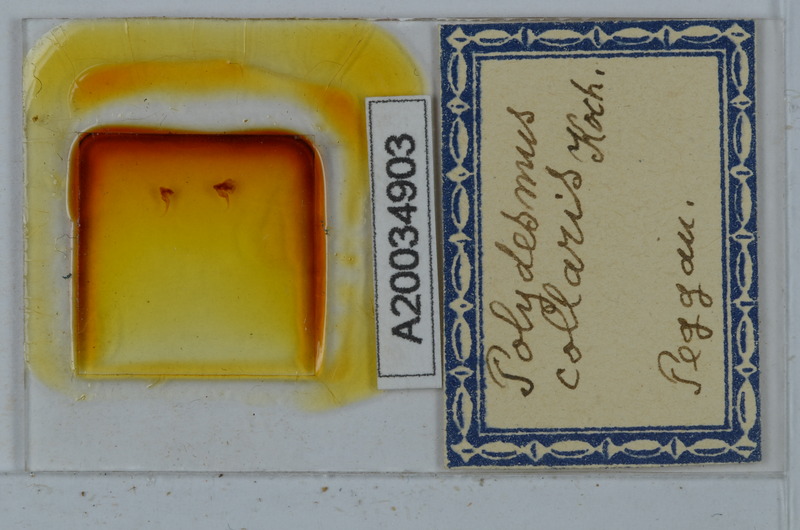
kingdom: Animalia
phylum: Arthropoda
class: Diplopoda
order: Polydesmida
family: Polydesmidae
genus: Polydesmus
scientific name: Polydesmus collaris
